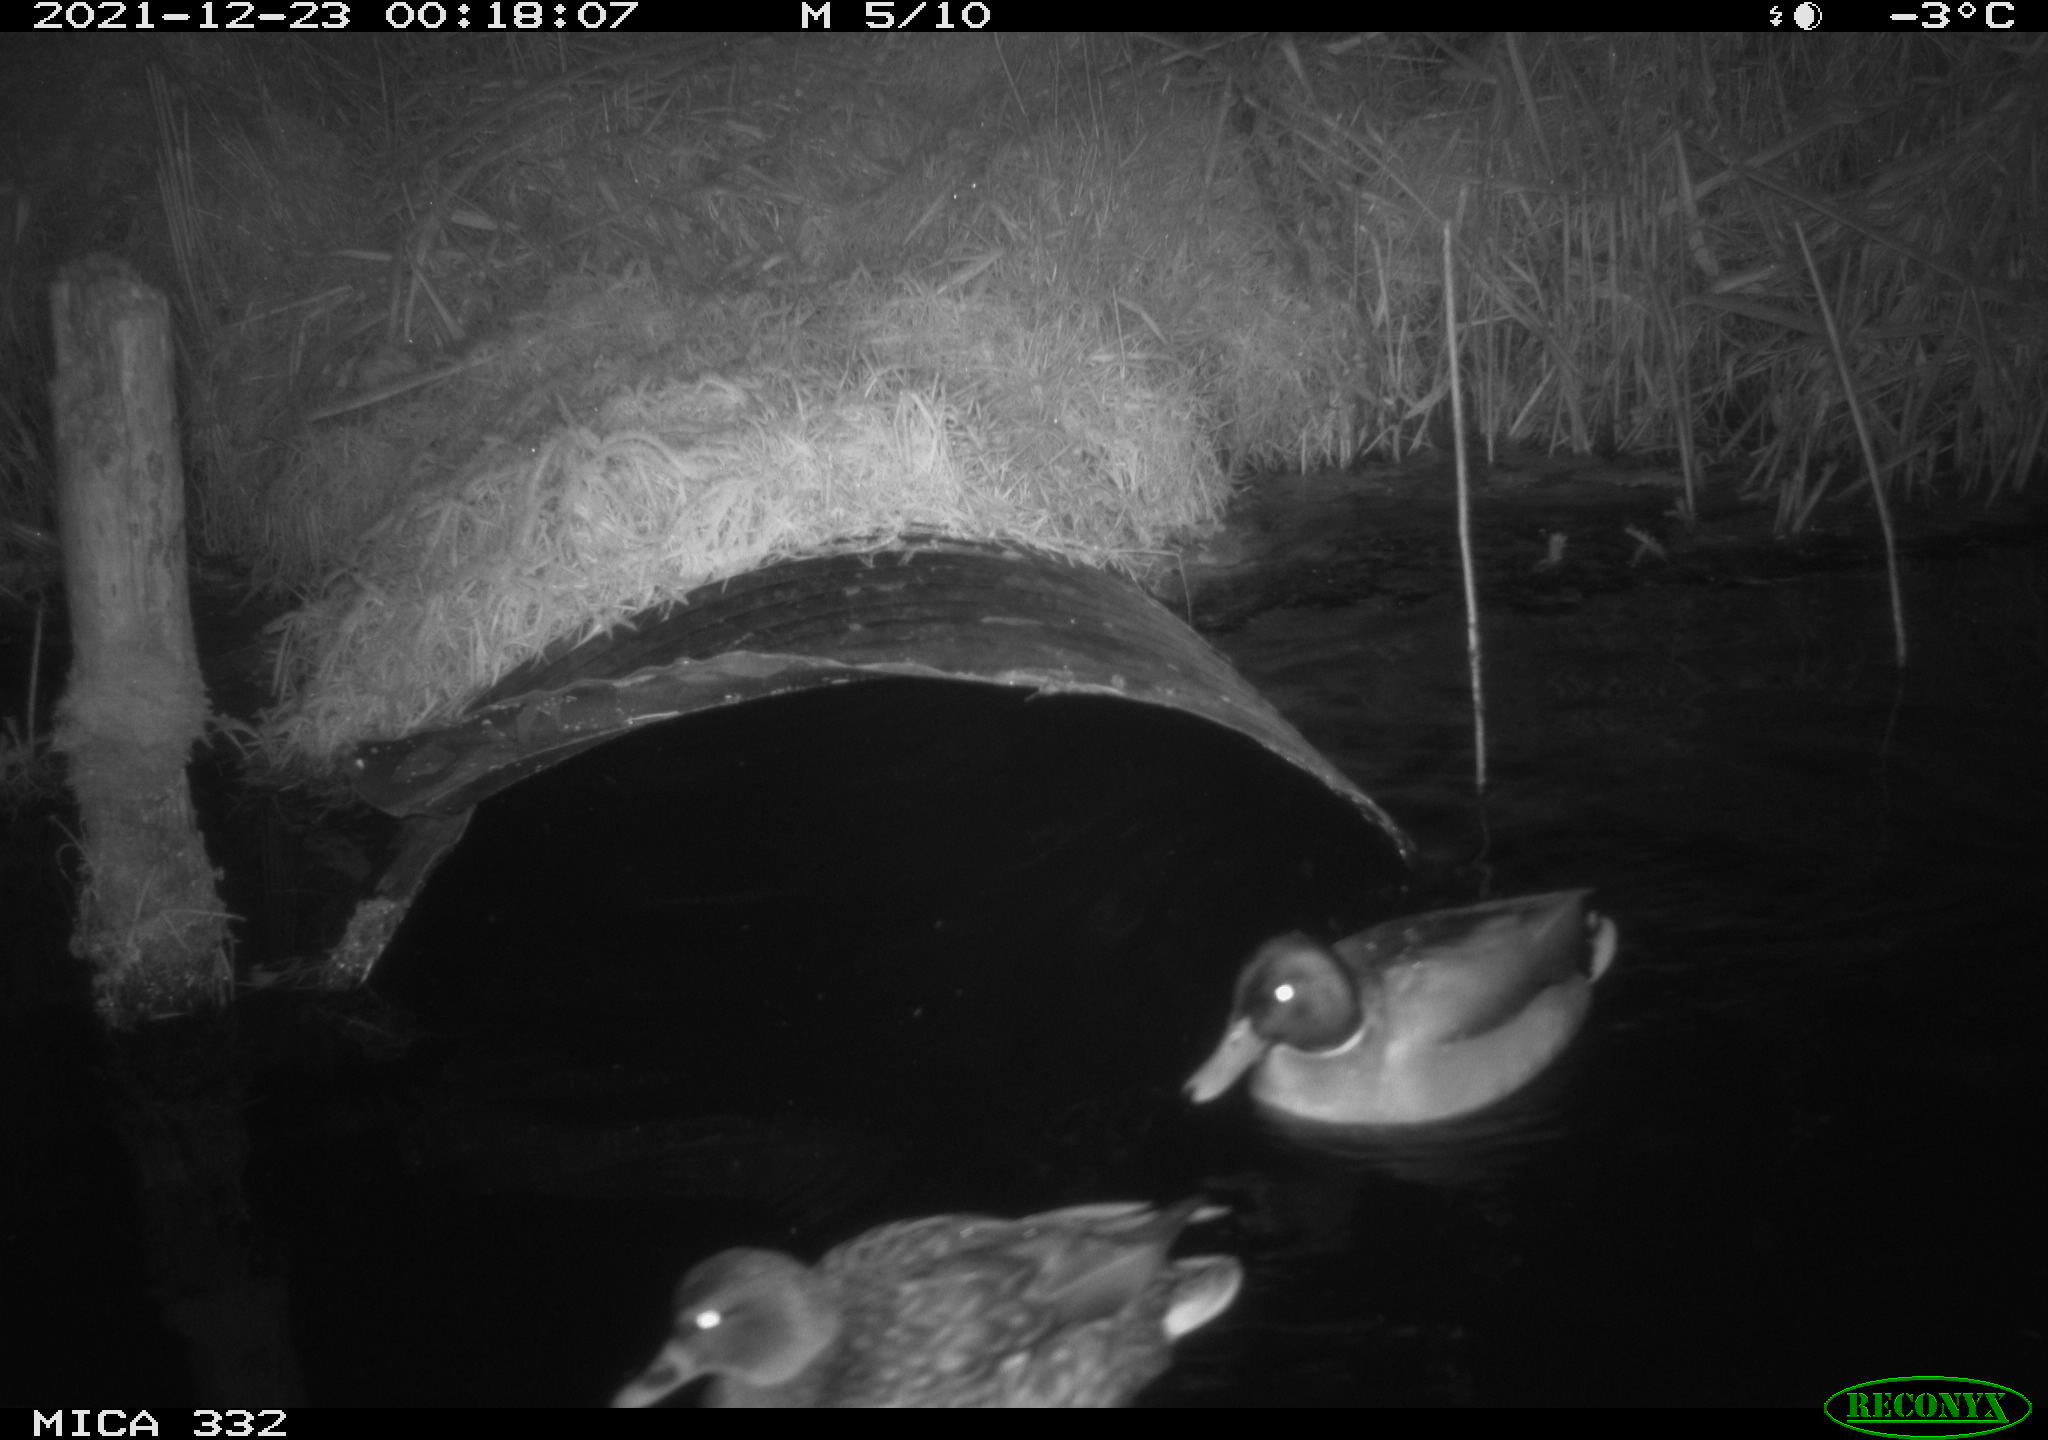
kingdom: Animalia
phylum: Chordata
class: Aves
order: Anseriformes
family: Anatidae
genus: Anas
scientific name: Anas platyrhynchos
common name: Mallard
